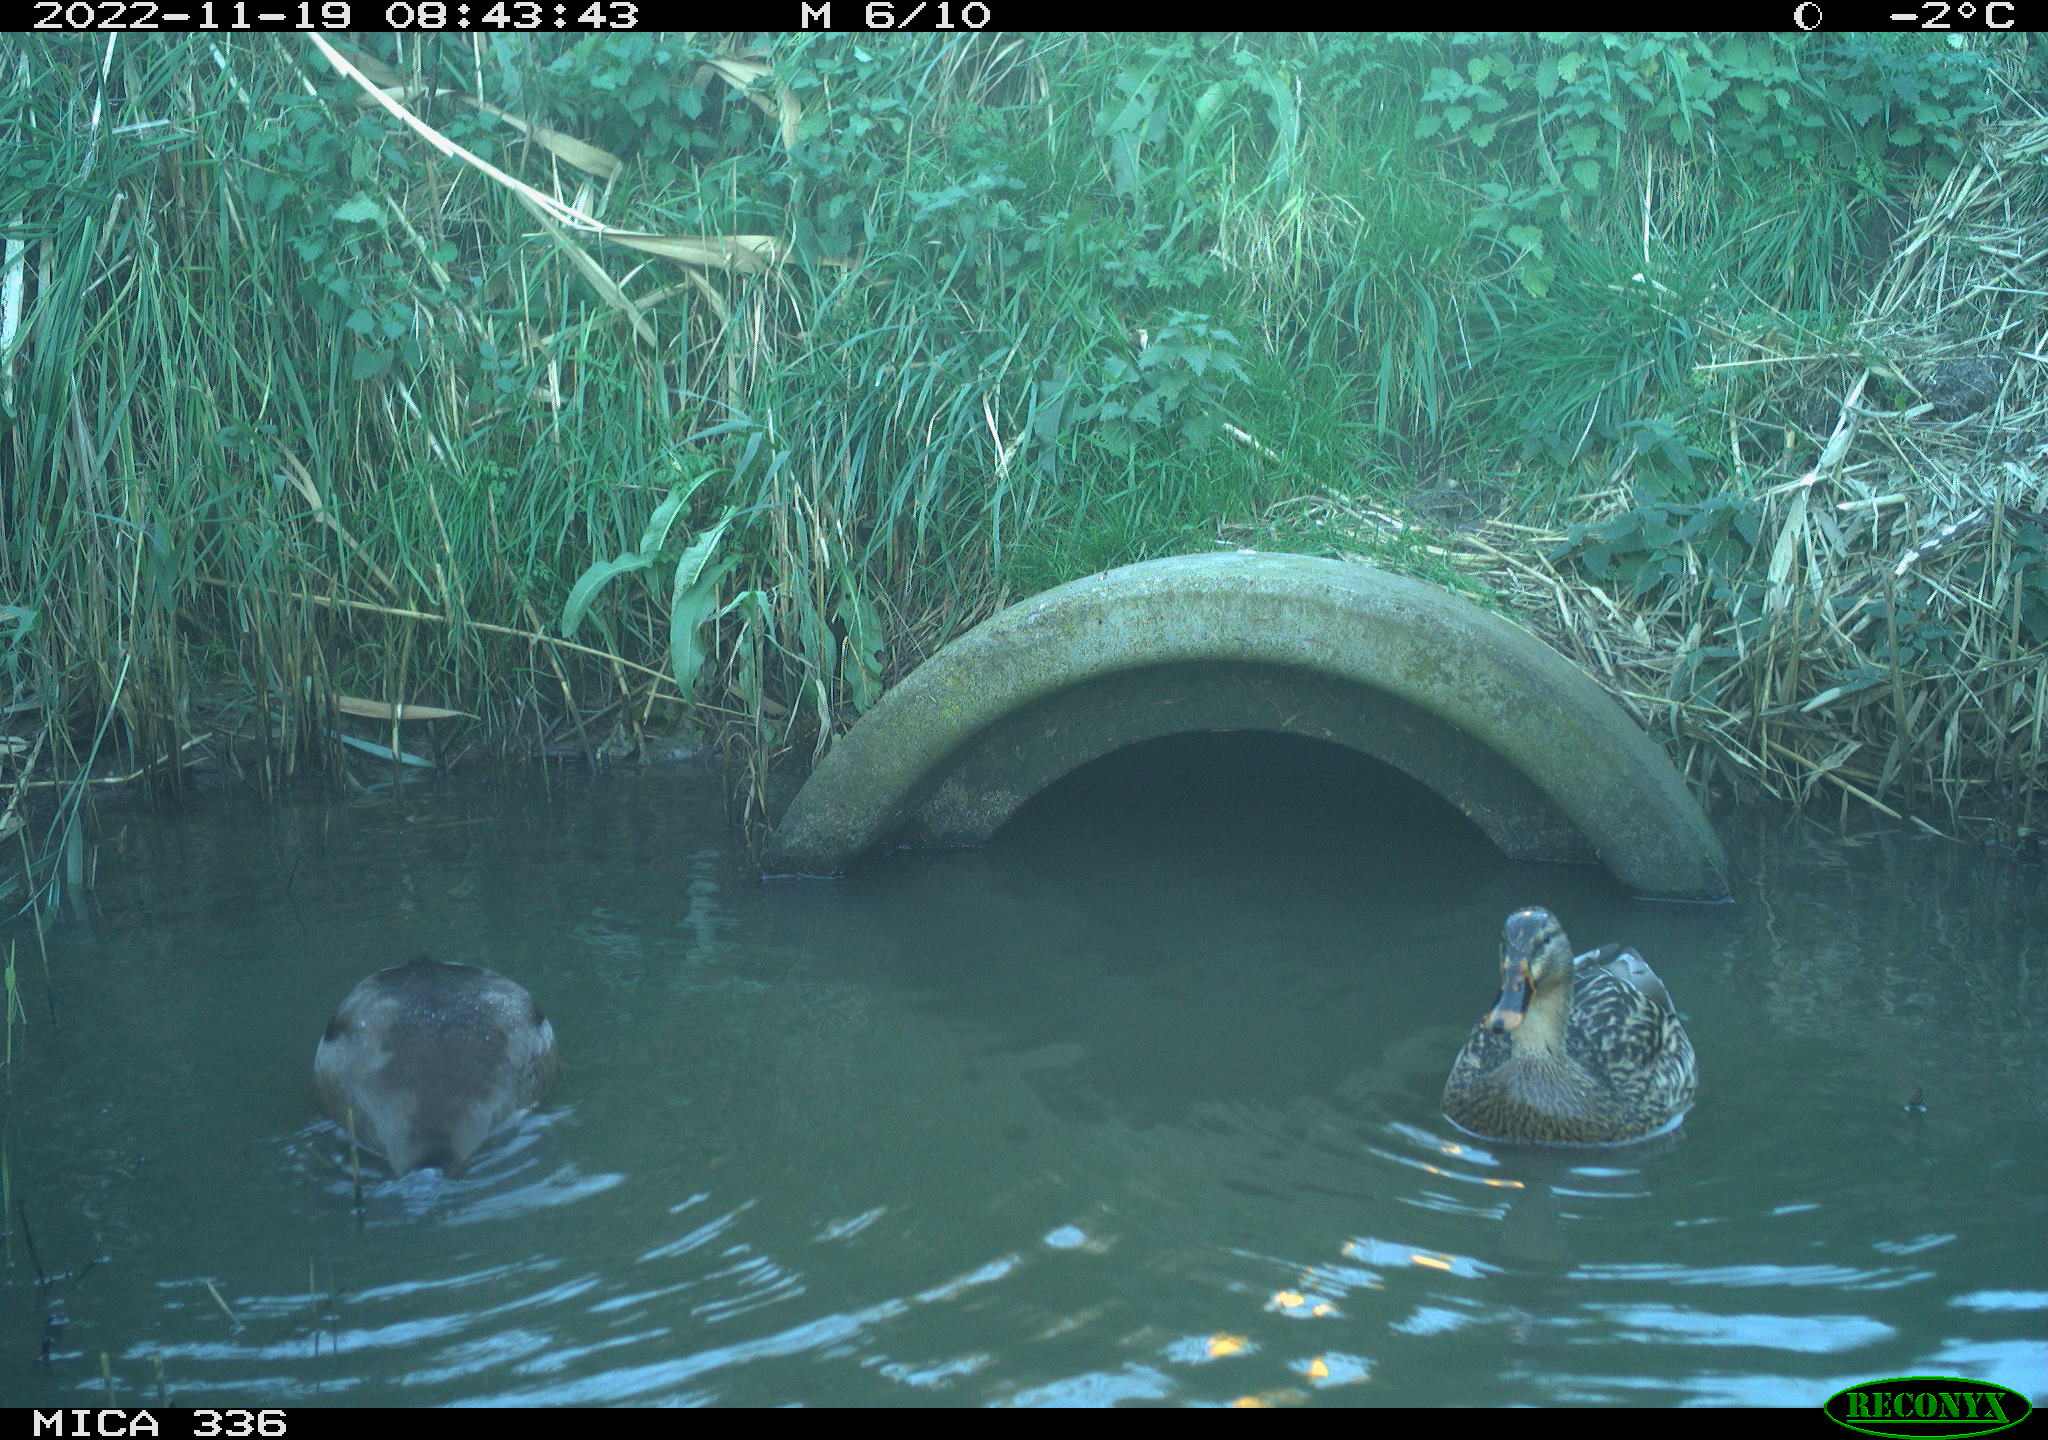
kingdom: Animalia
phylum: Chordata
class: Aves
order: Anseriformes
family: Anatidae
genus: Anas
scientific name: Anas platyrhynchos
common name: Mallard
